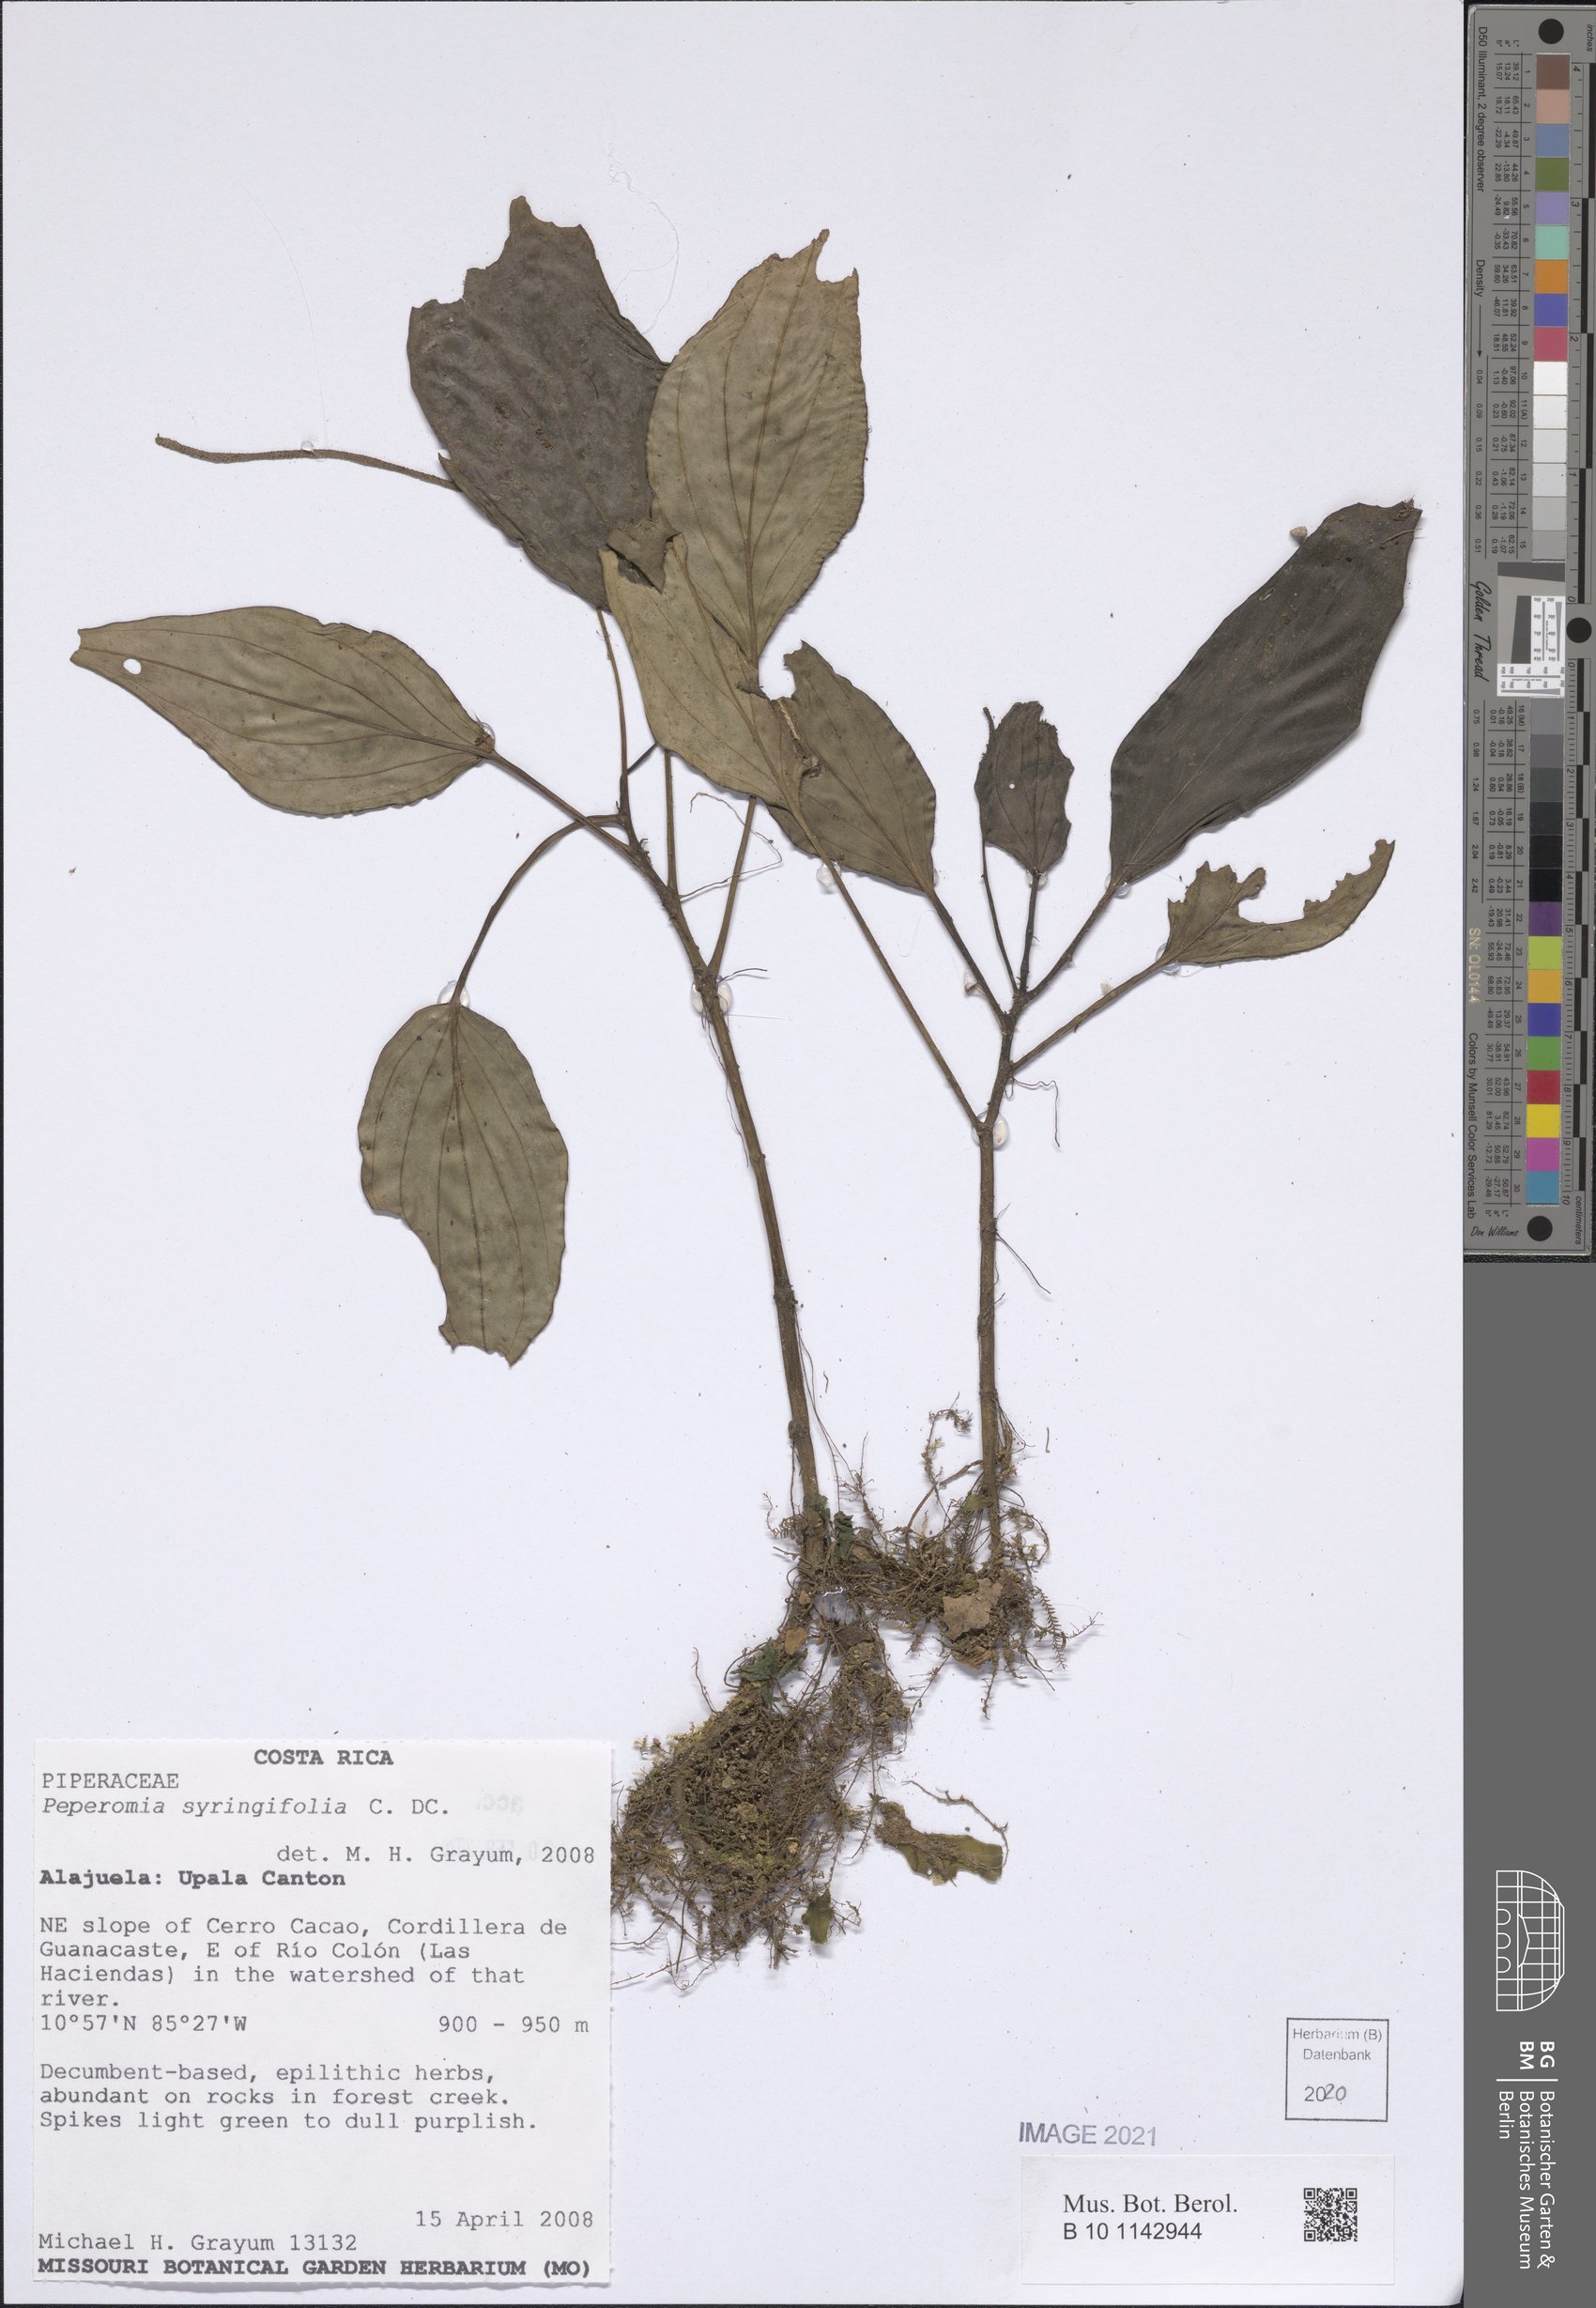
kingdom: Plantae
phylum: Tracheophyta
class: Magnoliopsida
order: Piperales
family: Piperaceae
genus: Peperomia
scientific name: Peperomia syringifolia
